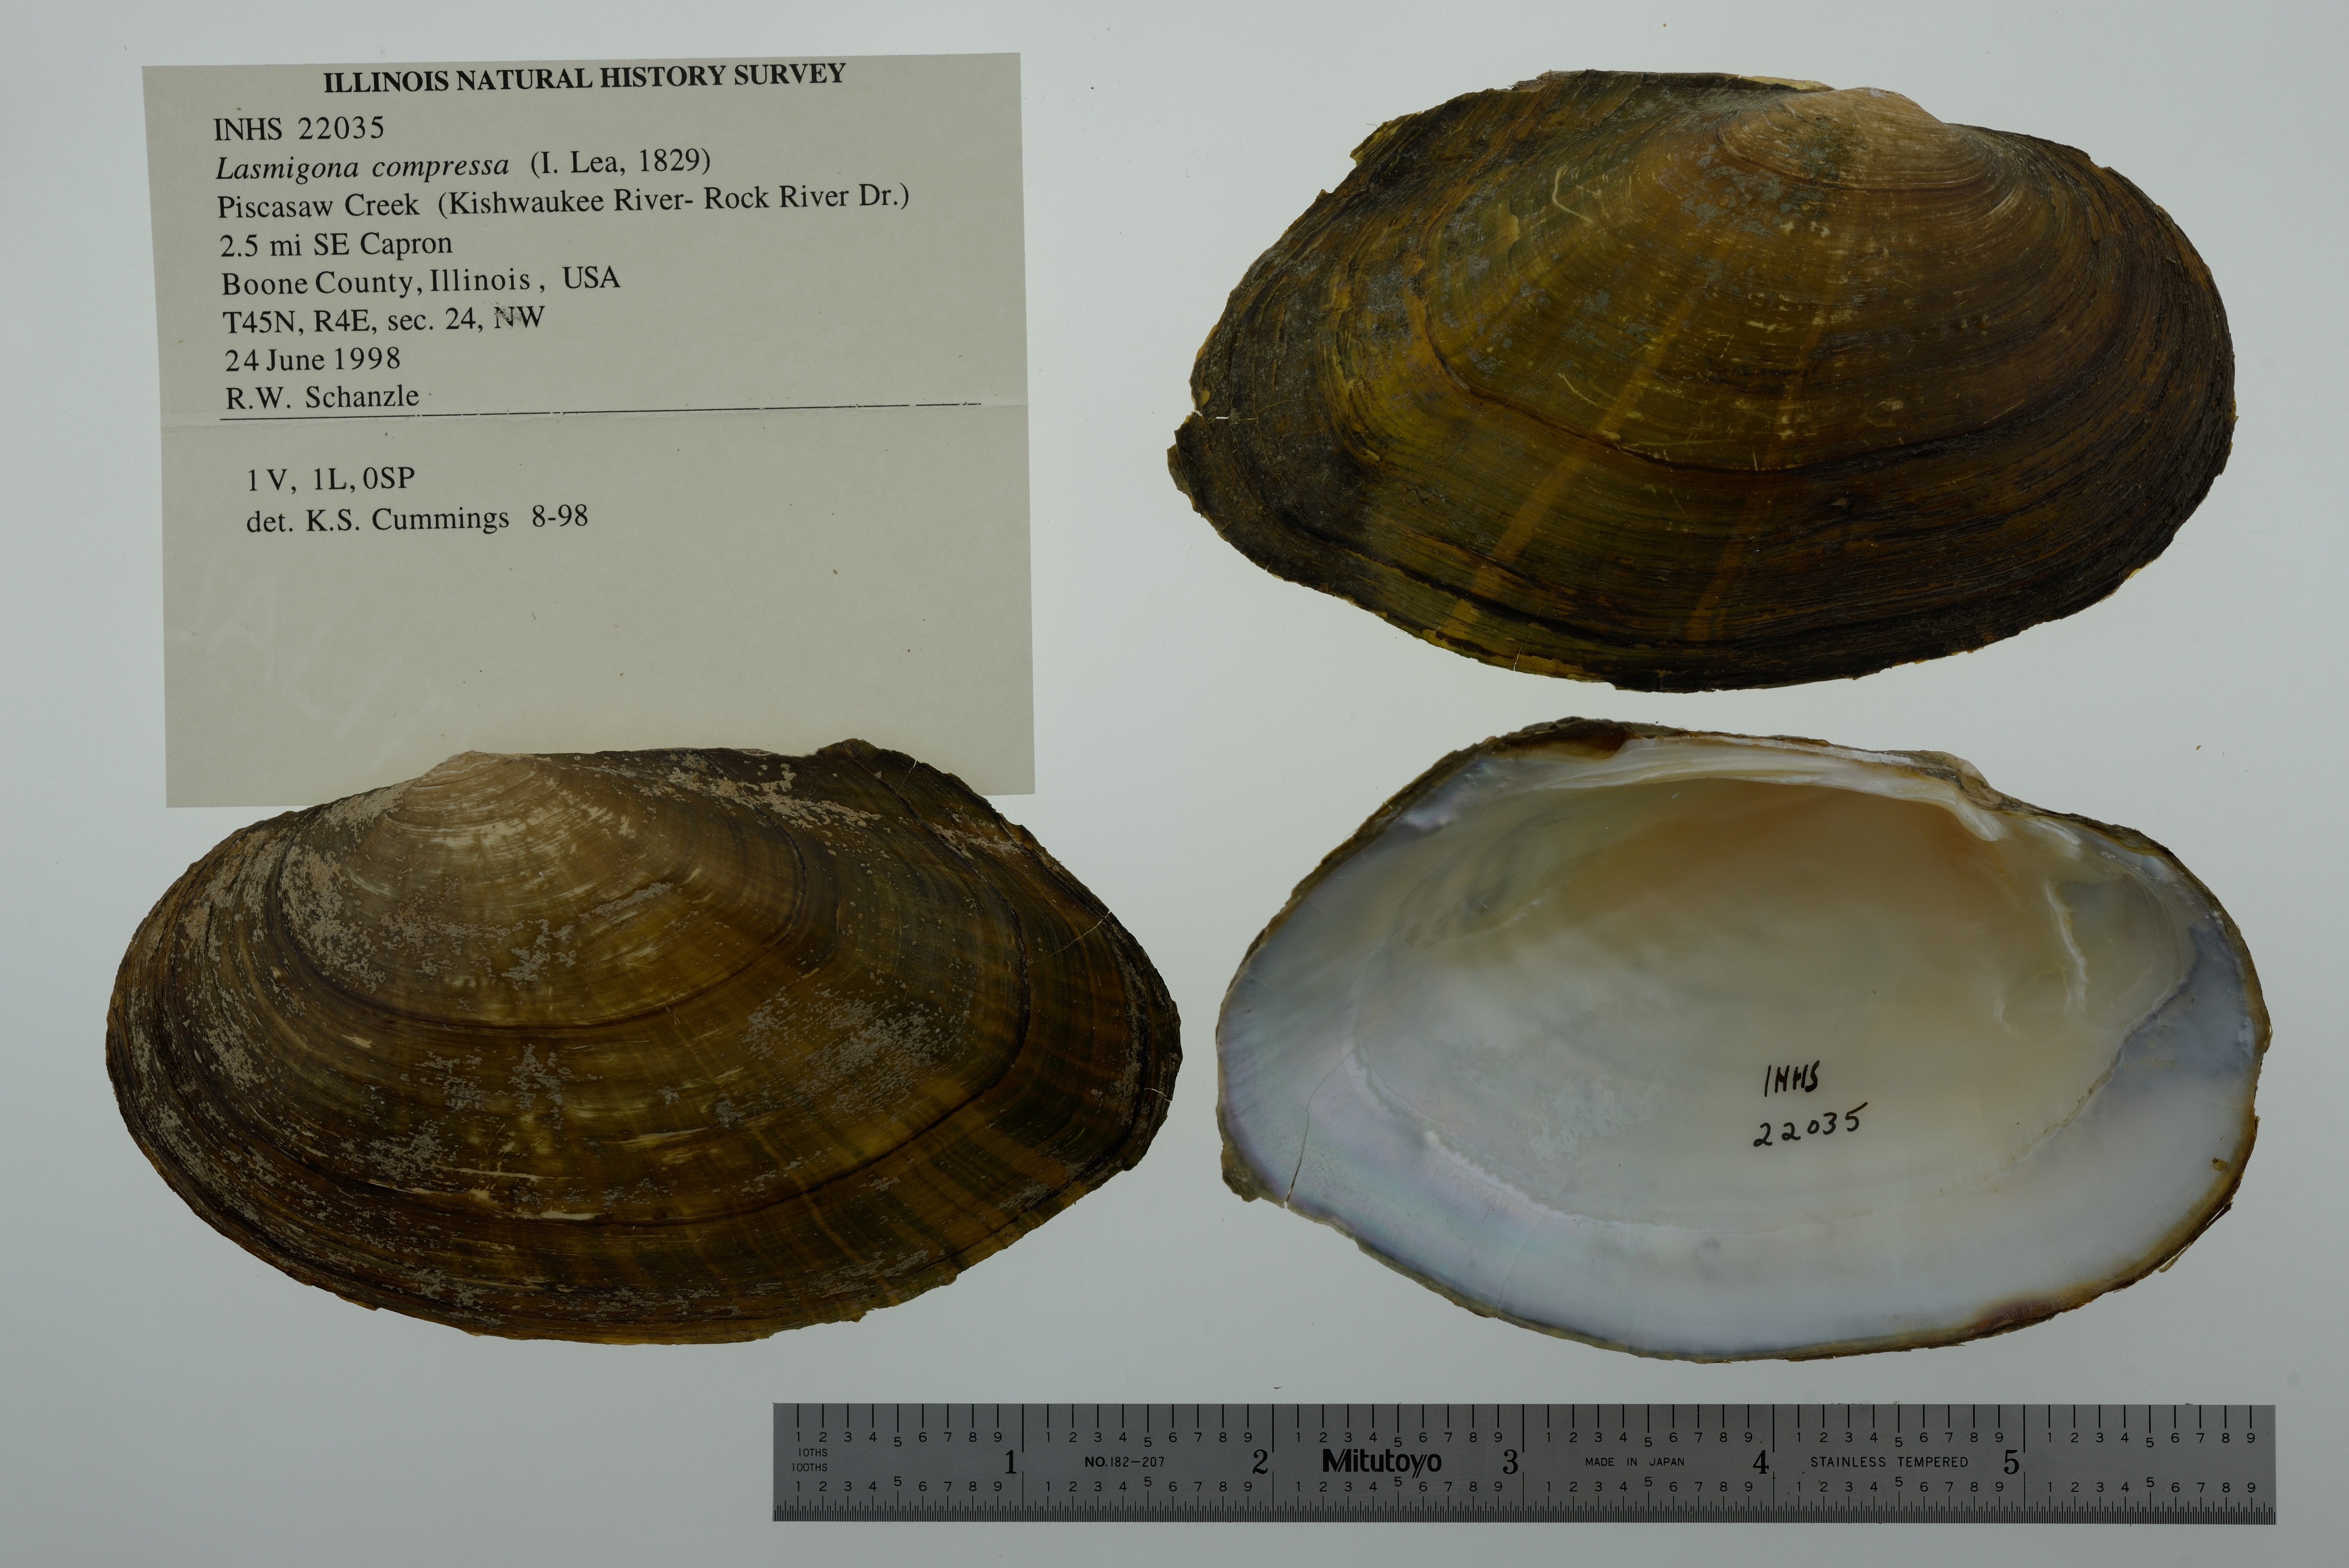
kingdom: Animalia
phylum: Mollusca
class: Bivalvia
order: Unionida
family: Unionidae
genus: Lasmigona
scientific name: Lasmigona compressa
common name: Creek heelsplitter
